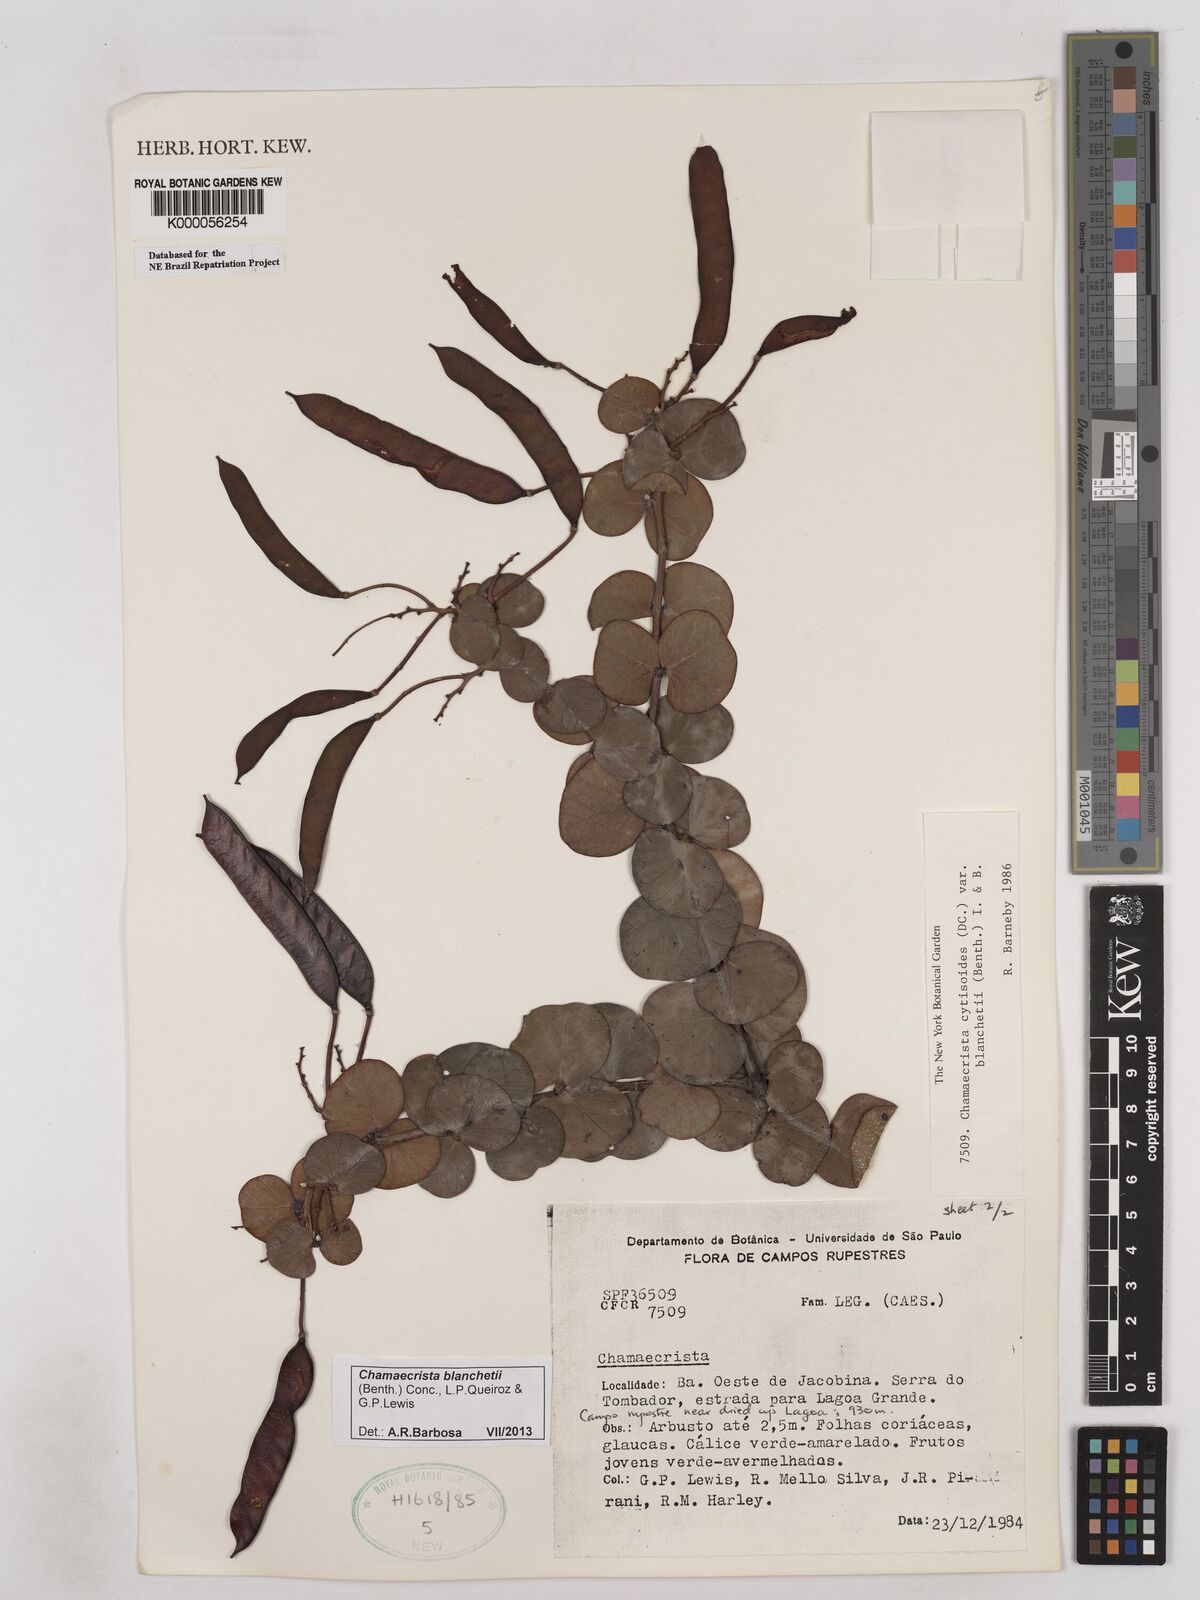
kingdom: Plantae
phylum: Tracheophyta
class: Magnoliopsida
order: Fabales
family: Fabaceae
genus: Chamaecrista
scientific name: Chamaecrista cytisoides
